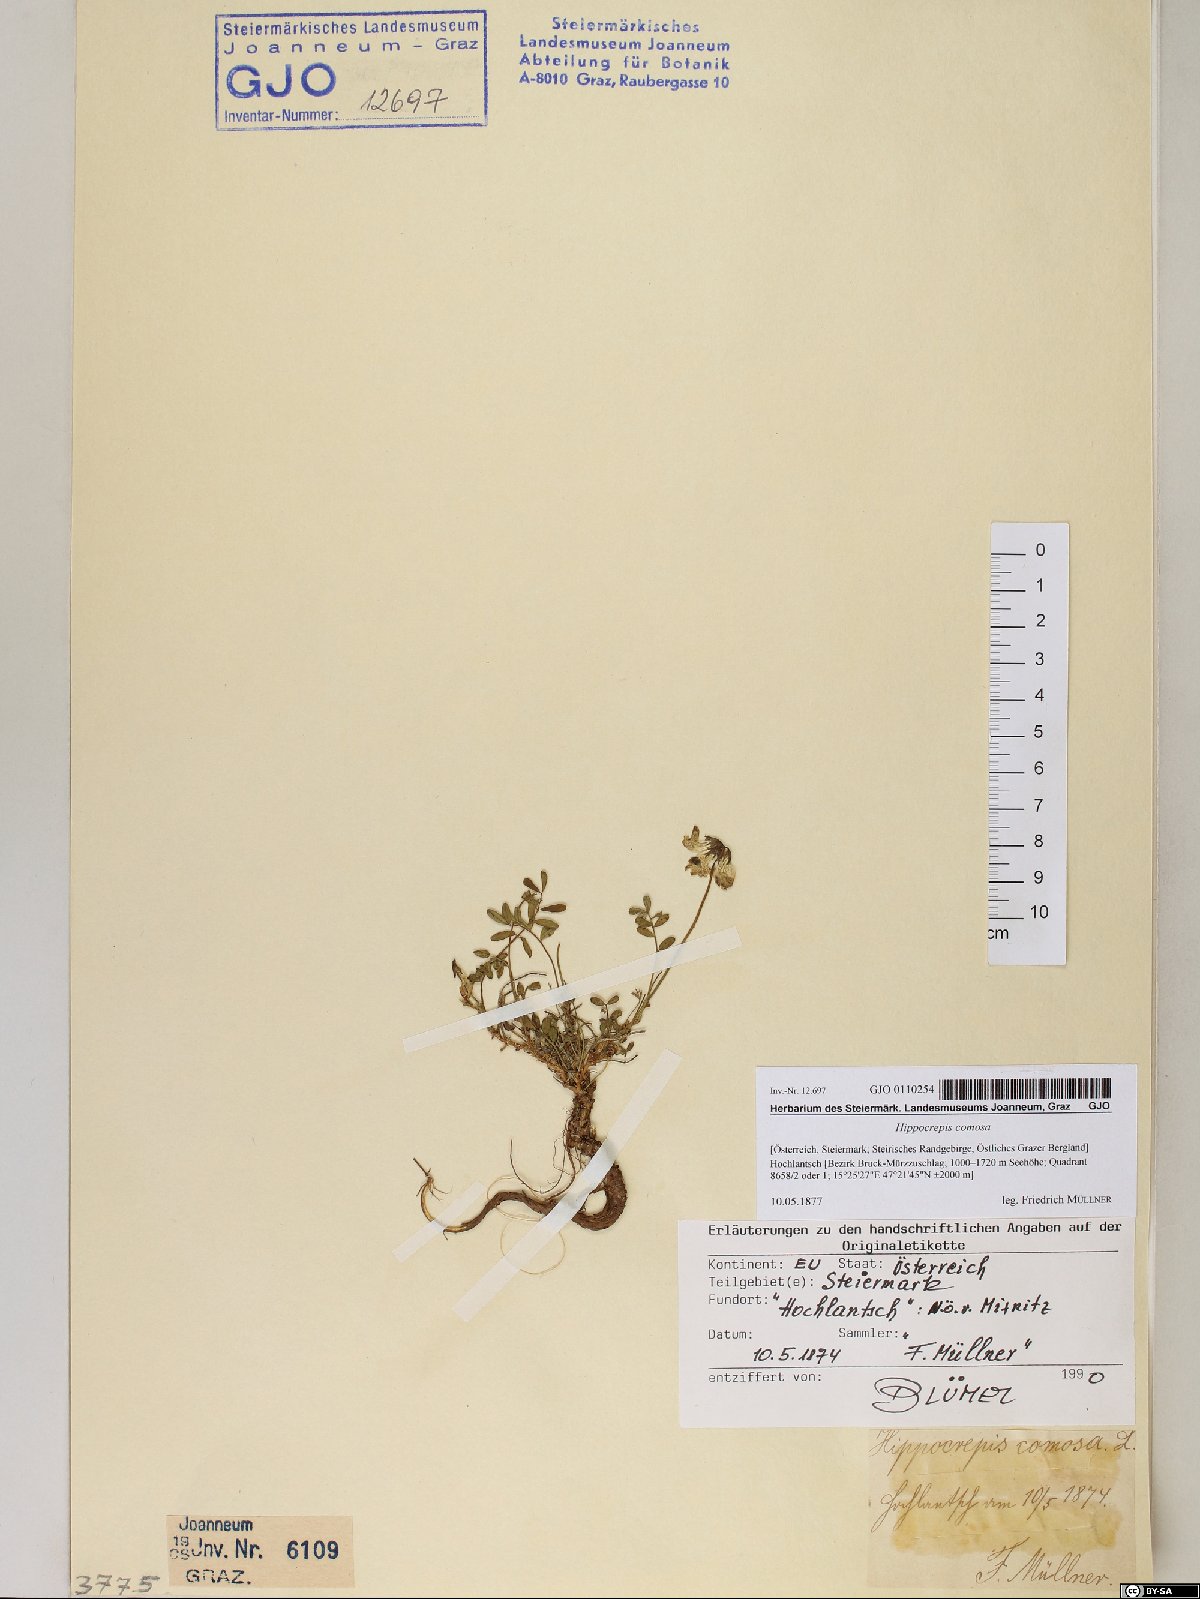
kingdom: Plantae
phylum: Tracheophyta
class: Magnoliopsida
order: Fabales
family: Fabaceae
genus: Hippocrepis
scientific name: Hippocrepis comosa
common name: Horseshoe vetch
